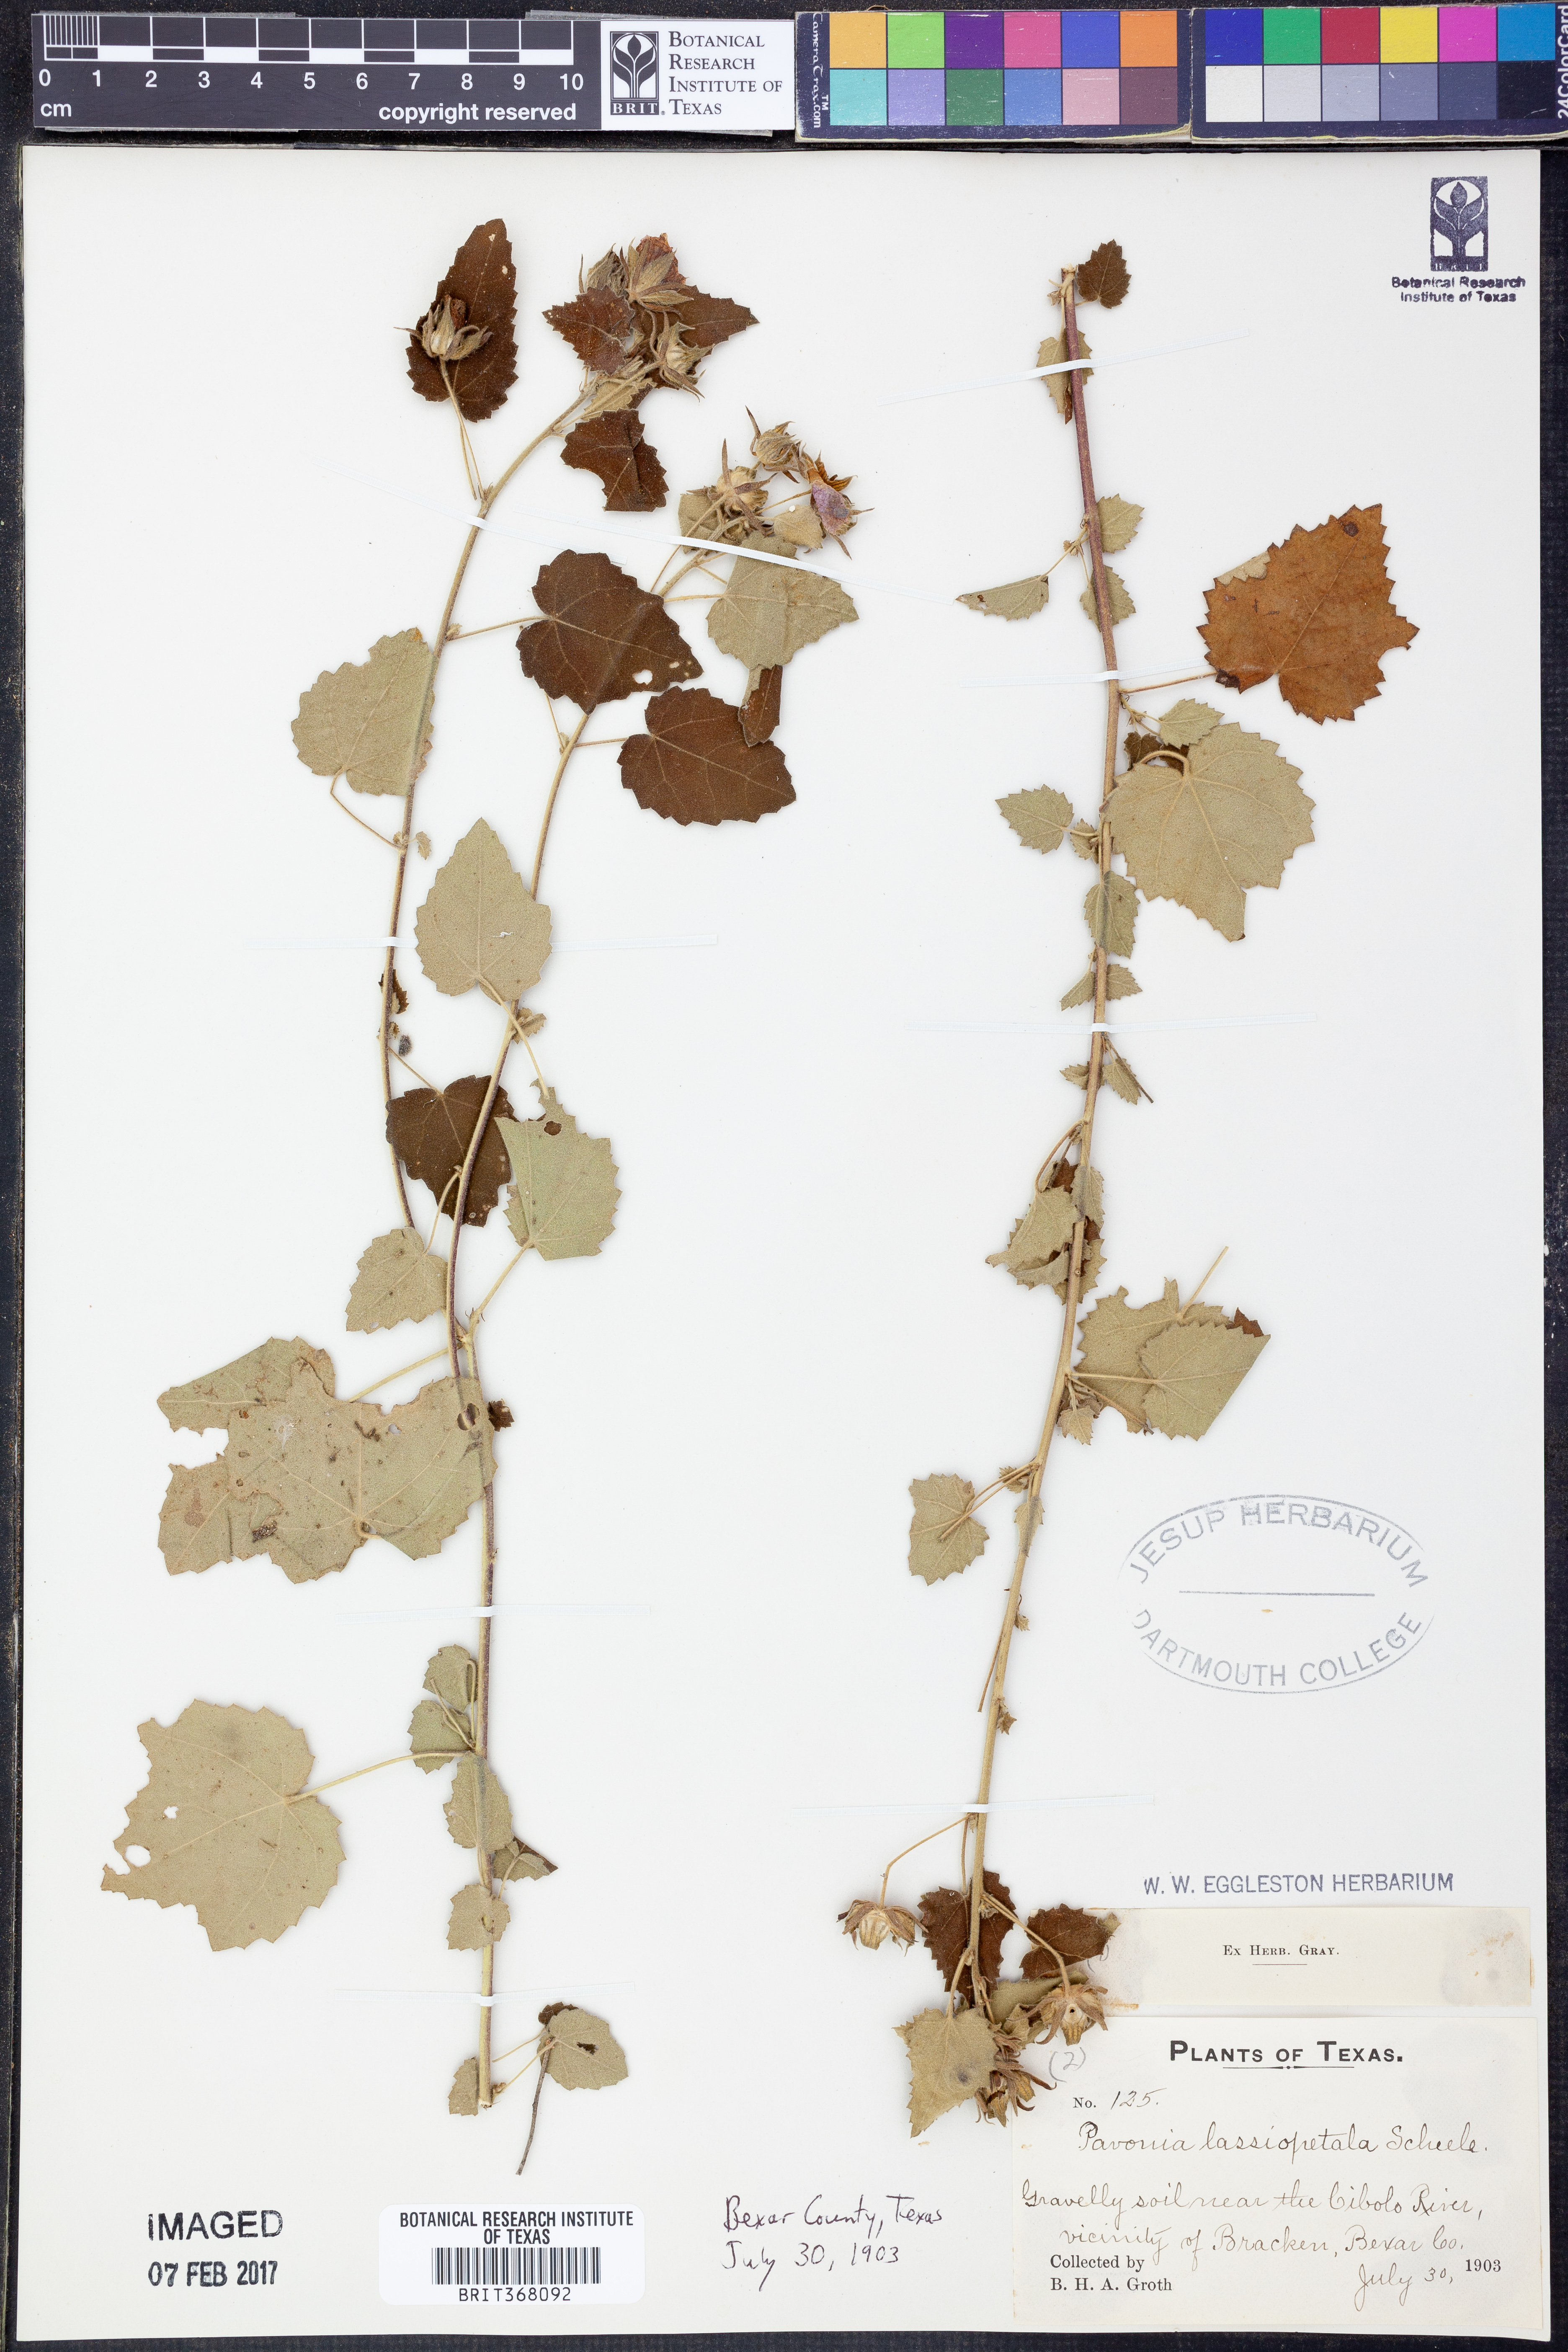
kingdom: Plantae
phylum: Tracheophyta
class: Magnoliopsida
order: Malvales
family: Malvaceae
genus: Pavonia
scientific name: Pavonia lasiopetala
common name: Texas swamp-mallow
